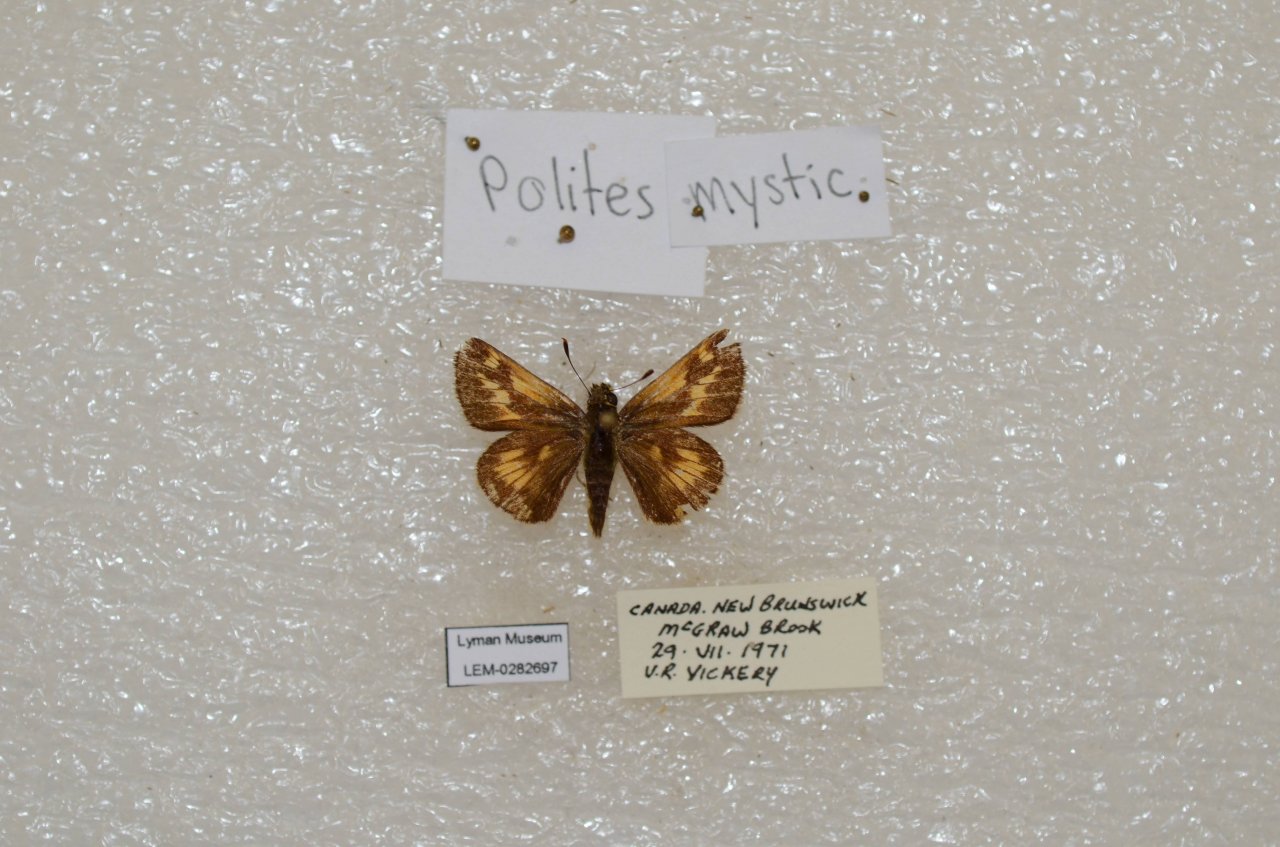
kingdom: Animalia
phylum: Arthropoda
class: Insecta
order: Lepidoptera
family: Hesperiidae
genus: Polites
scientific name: Polites
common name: Long Dash Skipper
